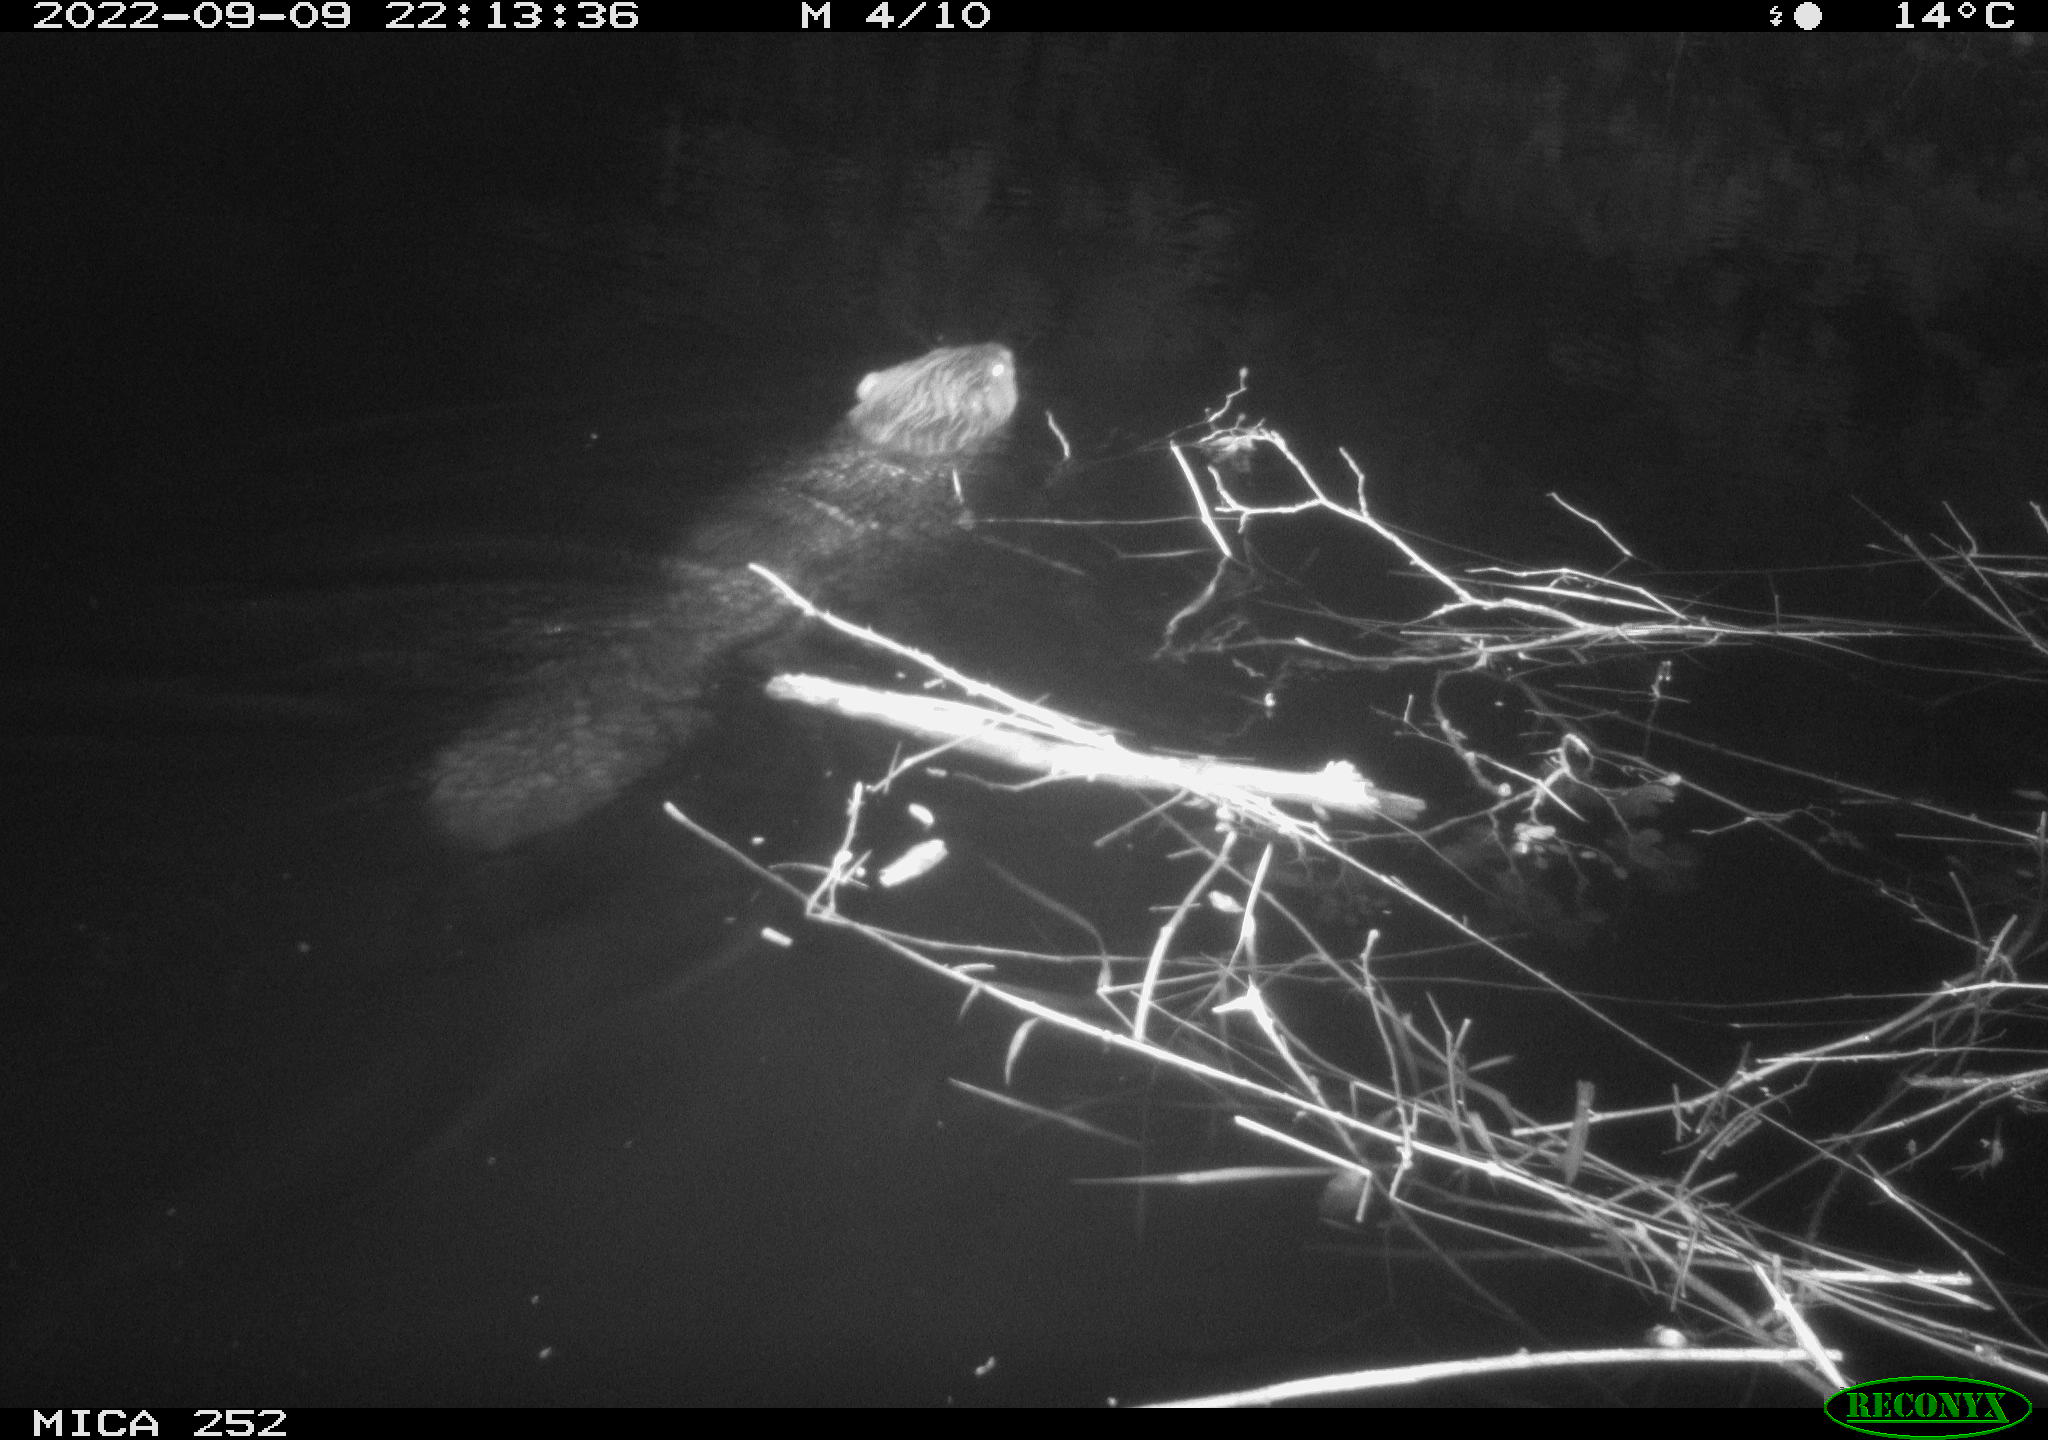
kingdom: Animalia
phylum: Chordata
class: Mammalia
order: Rodentia
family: Castoridae
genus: Castor
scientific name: Castor fiber
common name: Eurasian beaver
